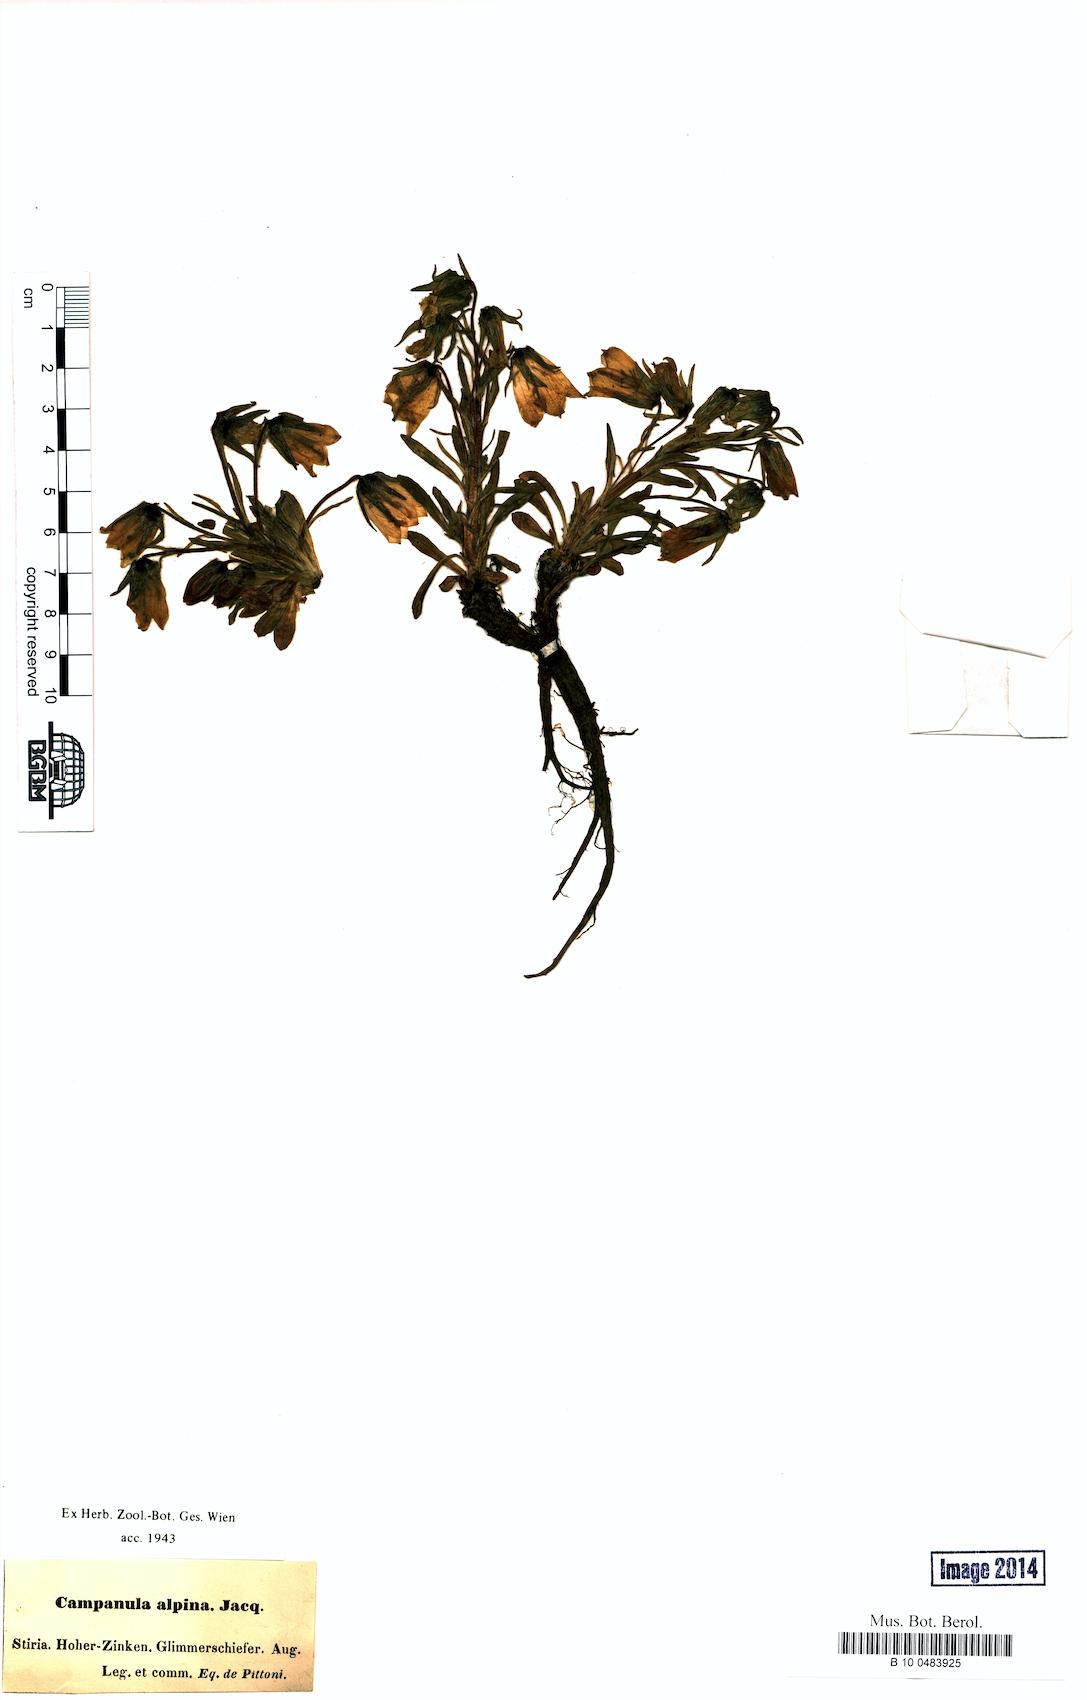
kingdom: Plantae
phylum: Tracheophyta
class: Magnoliopsida
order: Asterales
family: Campanulaceae
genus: Campanula
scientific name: Campanula alpina
